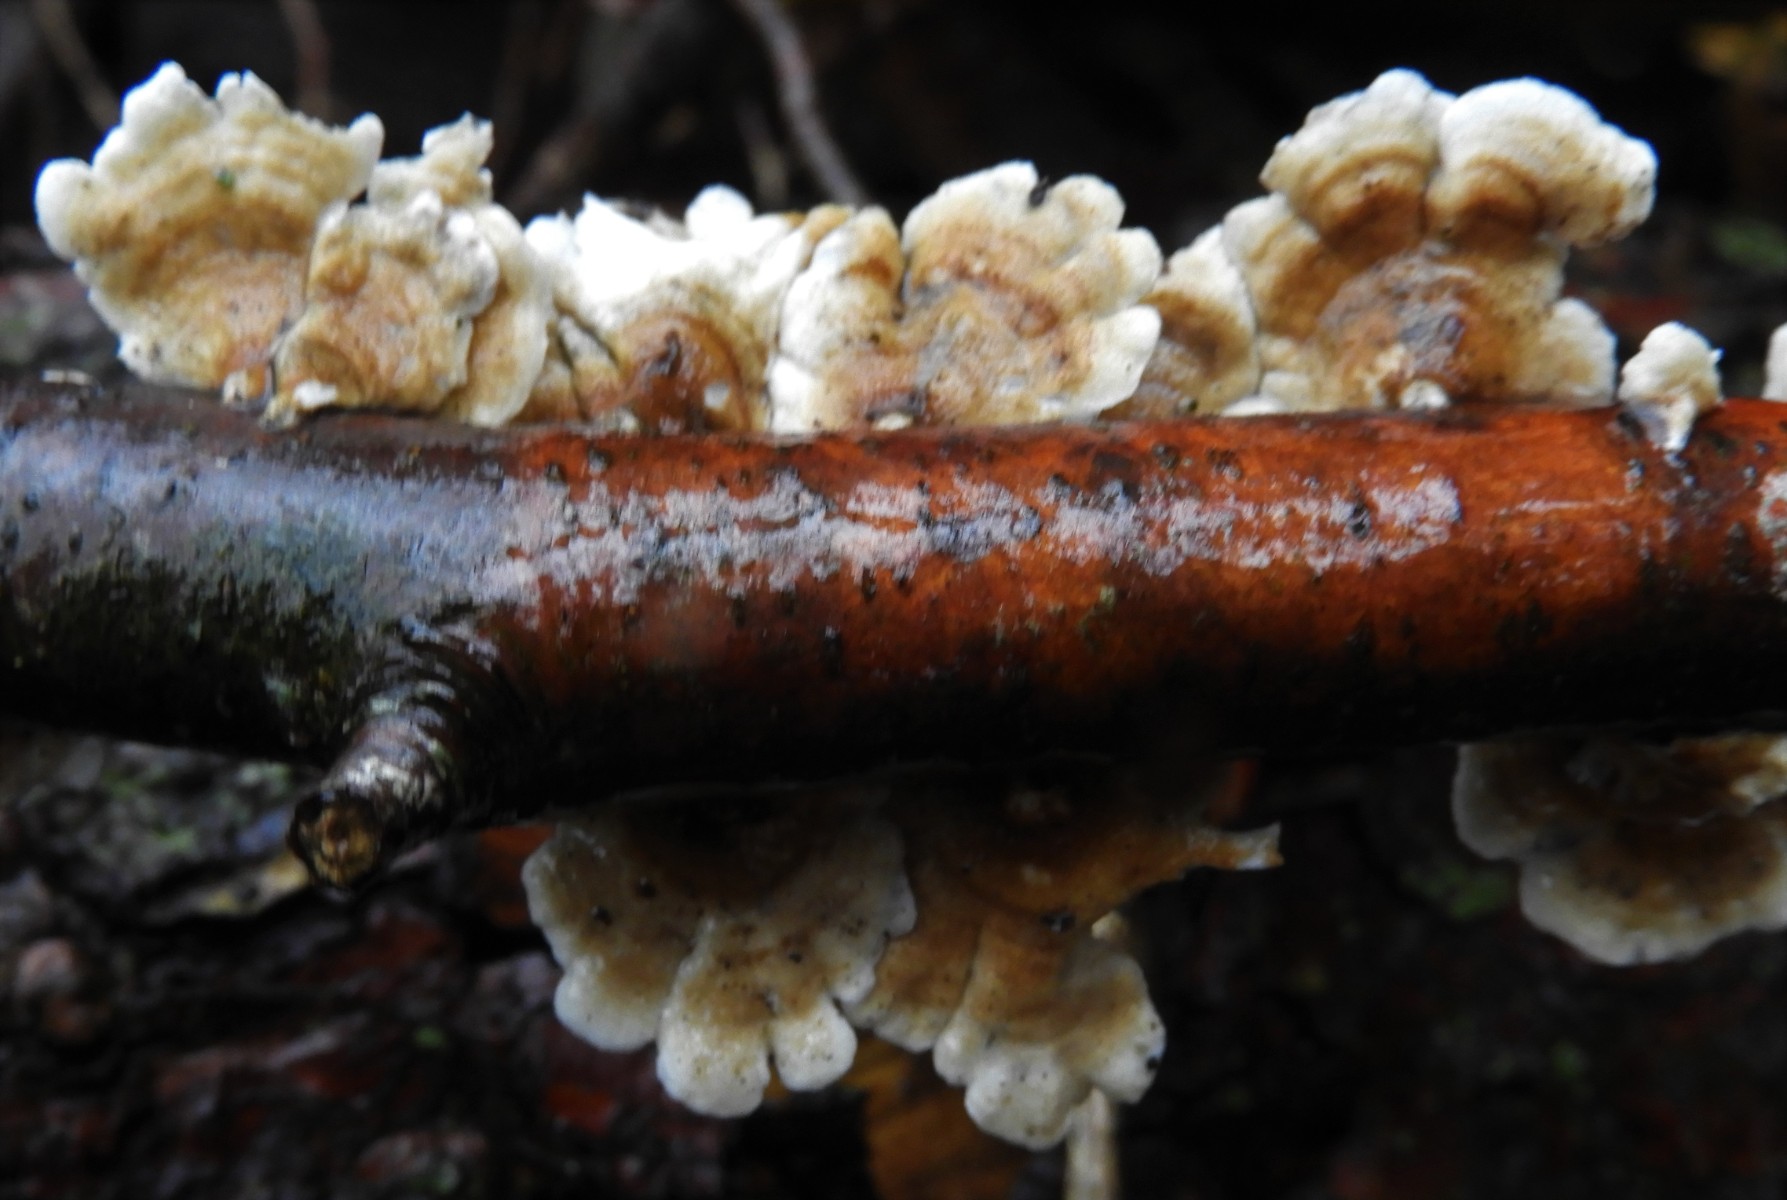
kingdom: Fungi
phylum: Basidiomycota
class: Agaricomycetes
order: Amylocorticiales
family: Amylocorticiaceae
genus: Plicaturopsis
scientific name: Plicaturopsis crispa
